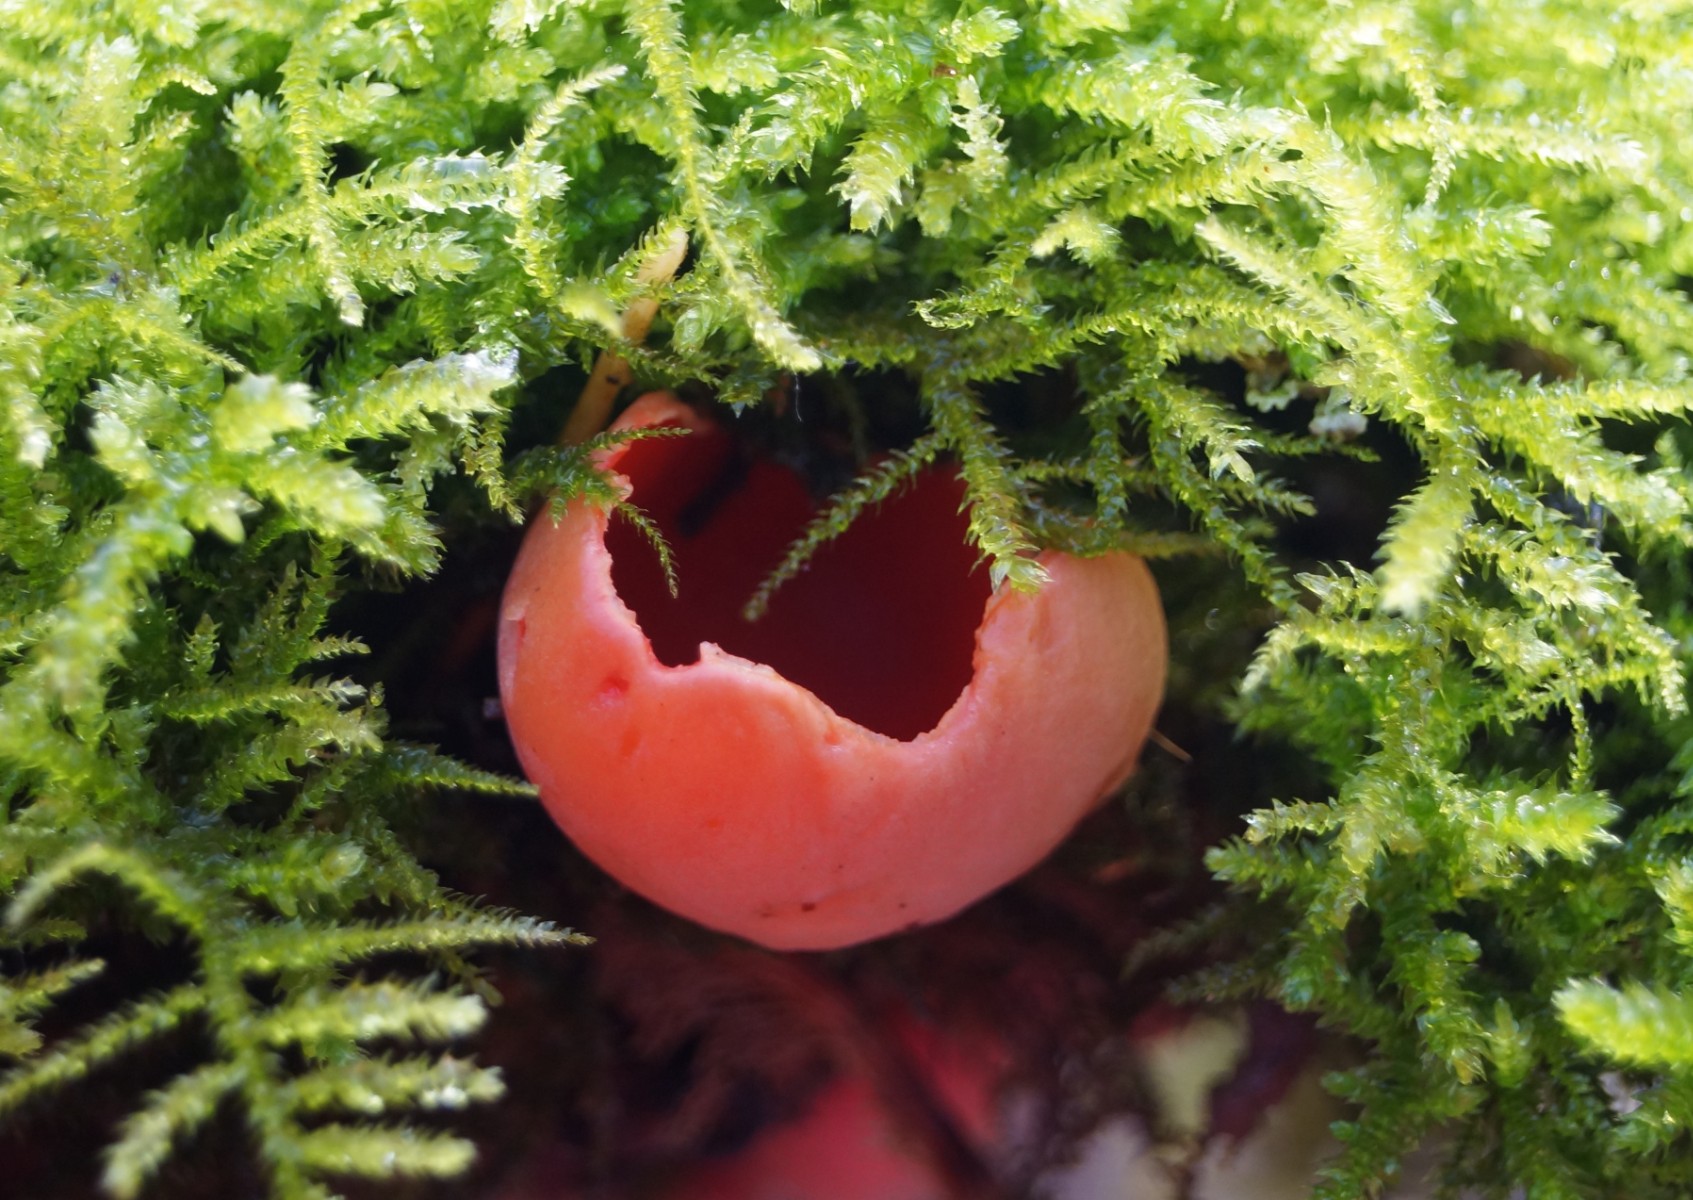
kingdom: Fungi
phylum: Ascomycota
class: Pezizomycetes
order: Pezizales
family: Sarcoscyphaceae
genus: Sarcoscypha
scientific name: Sarcoscypha austriaca
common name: krølhåret pragtbæger
